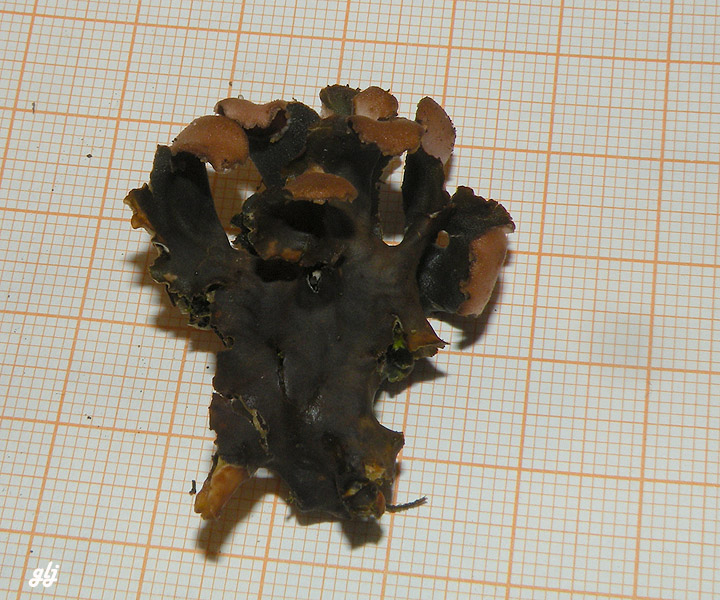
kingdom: Fungi
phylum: Ascomycota
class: Lecanoromycetes
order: Peltigerales
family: Peltigeraceae
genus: Peltigera
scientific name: Peltigera didactyla
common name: liden skjoldlav
